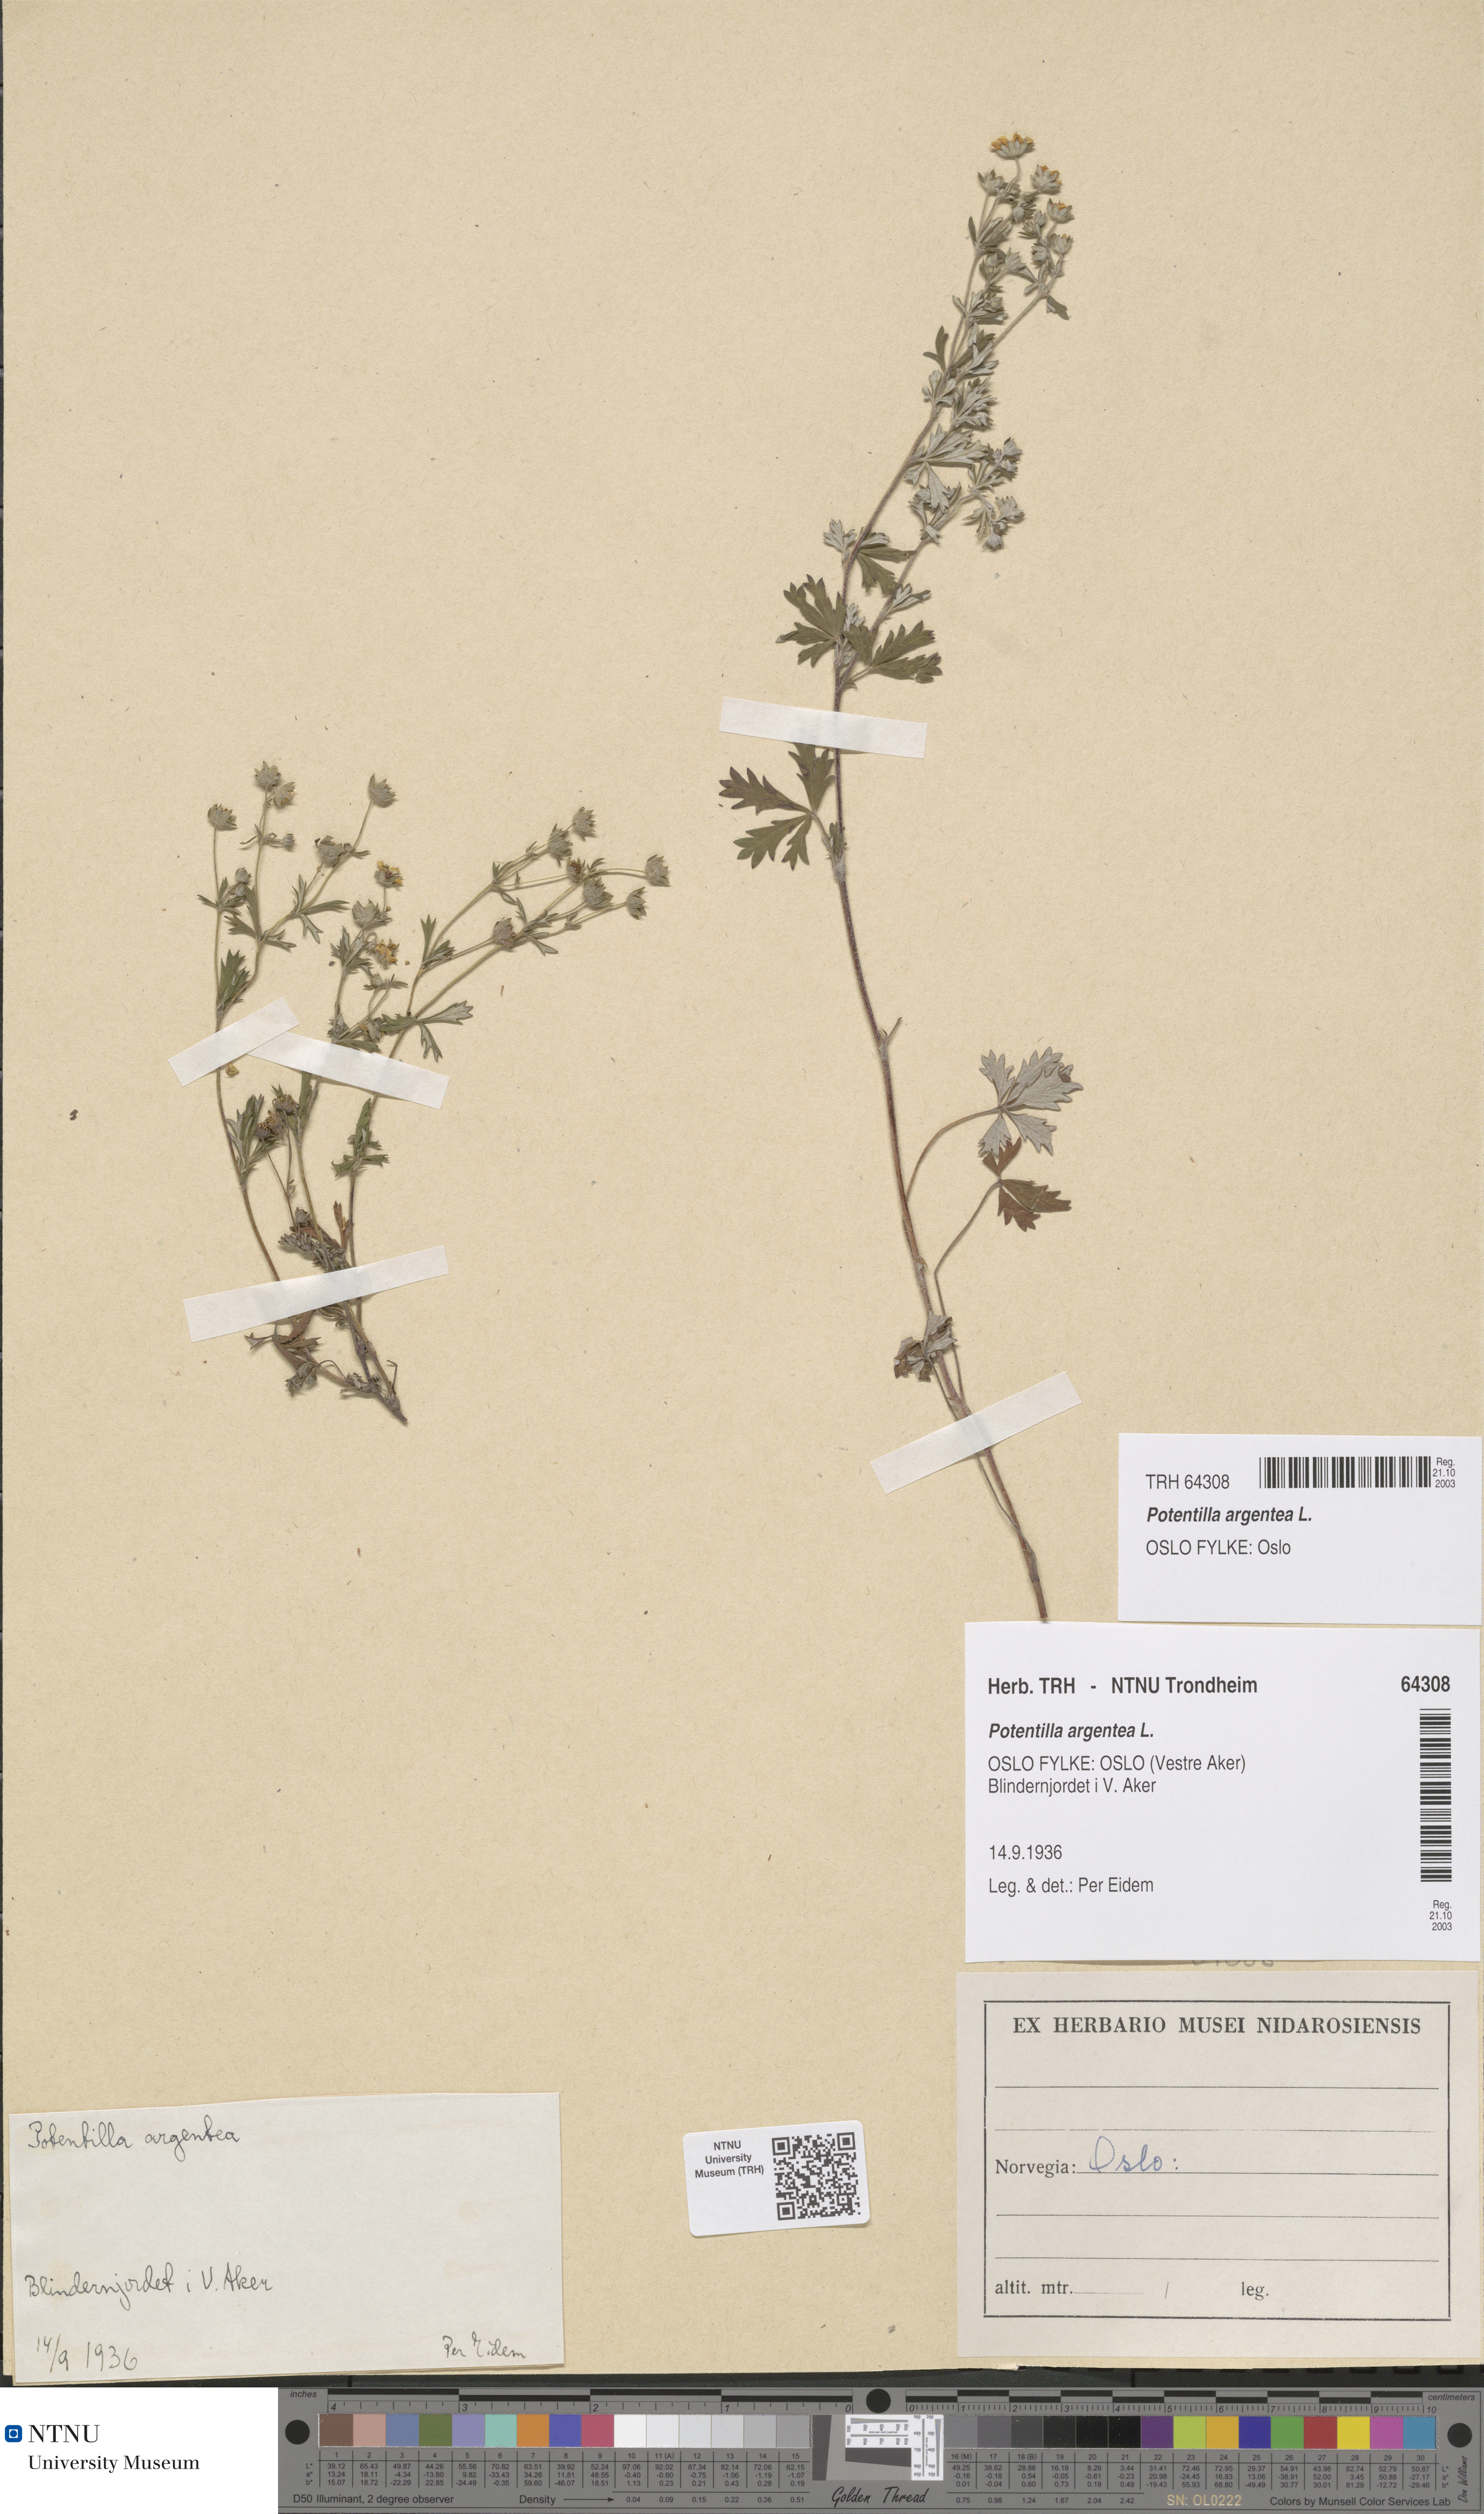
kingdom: Plantae
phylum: Tracheophyta
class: Magnoliopsida
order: Rosales
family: Rosaceae
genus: Potentilla
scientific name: Potentilla argentea
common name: Hoary cinquefoil
